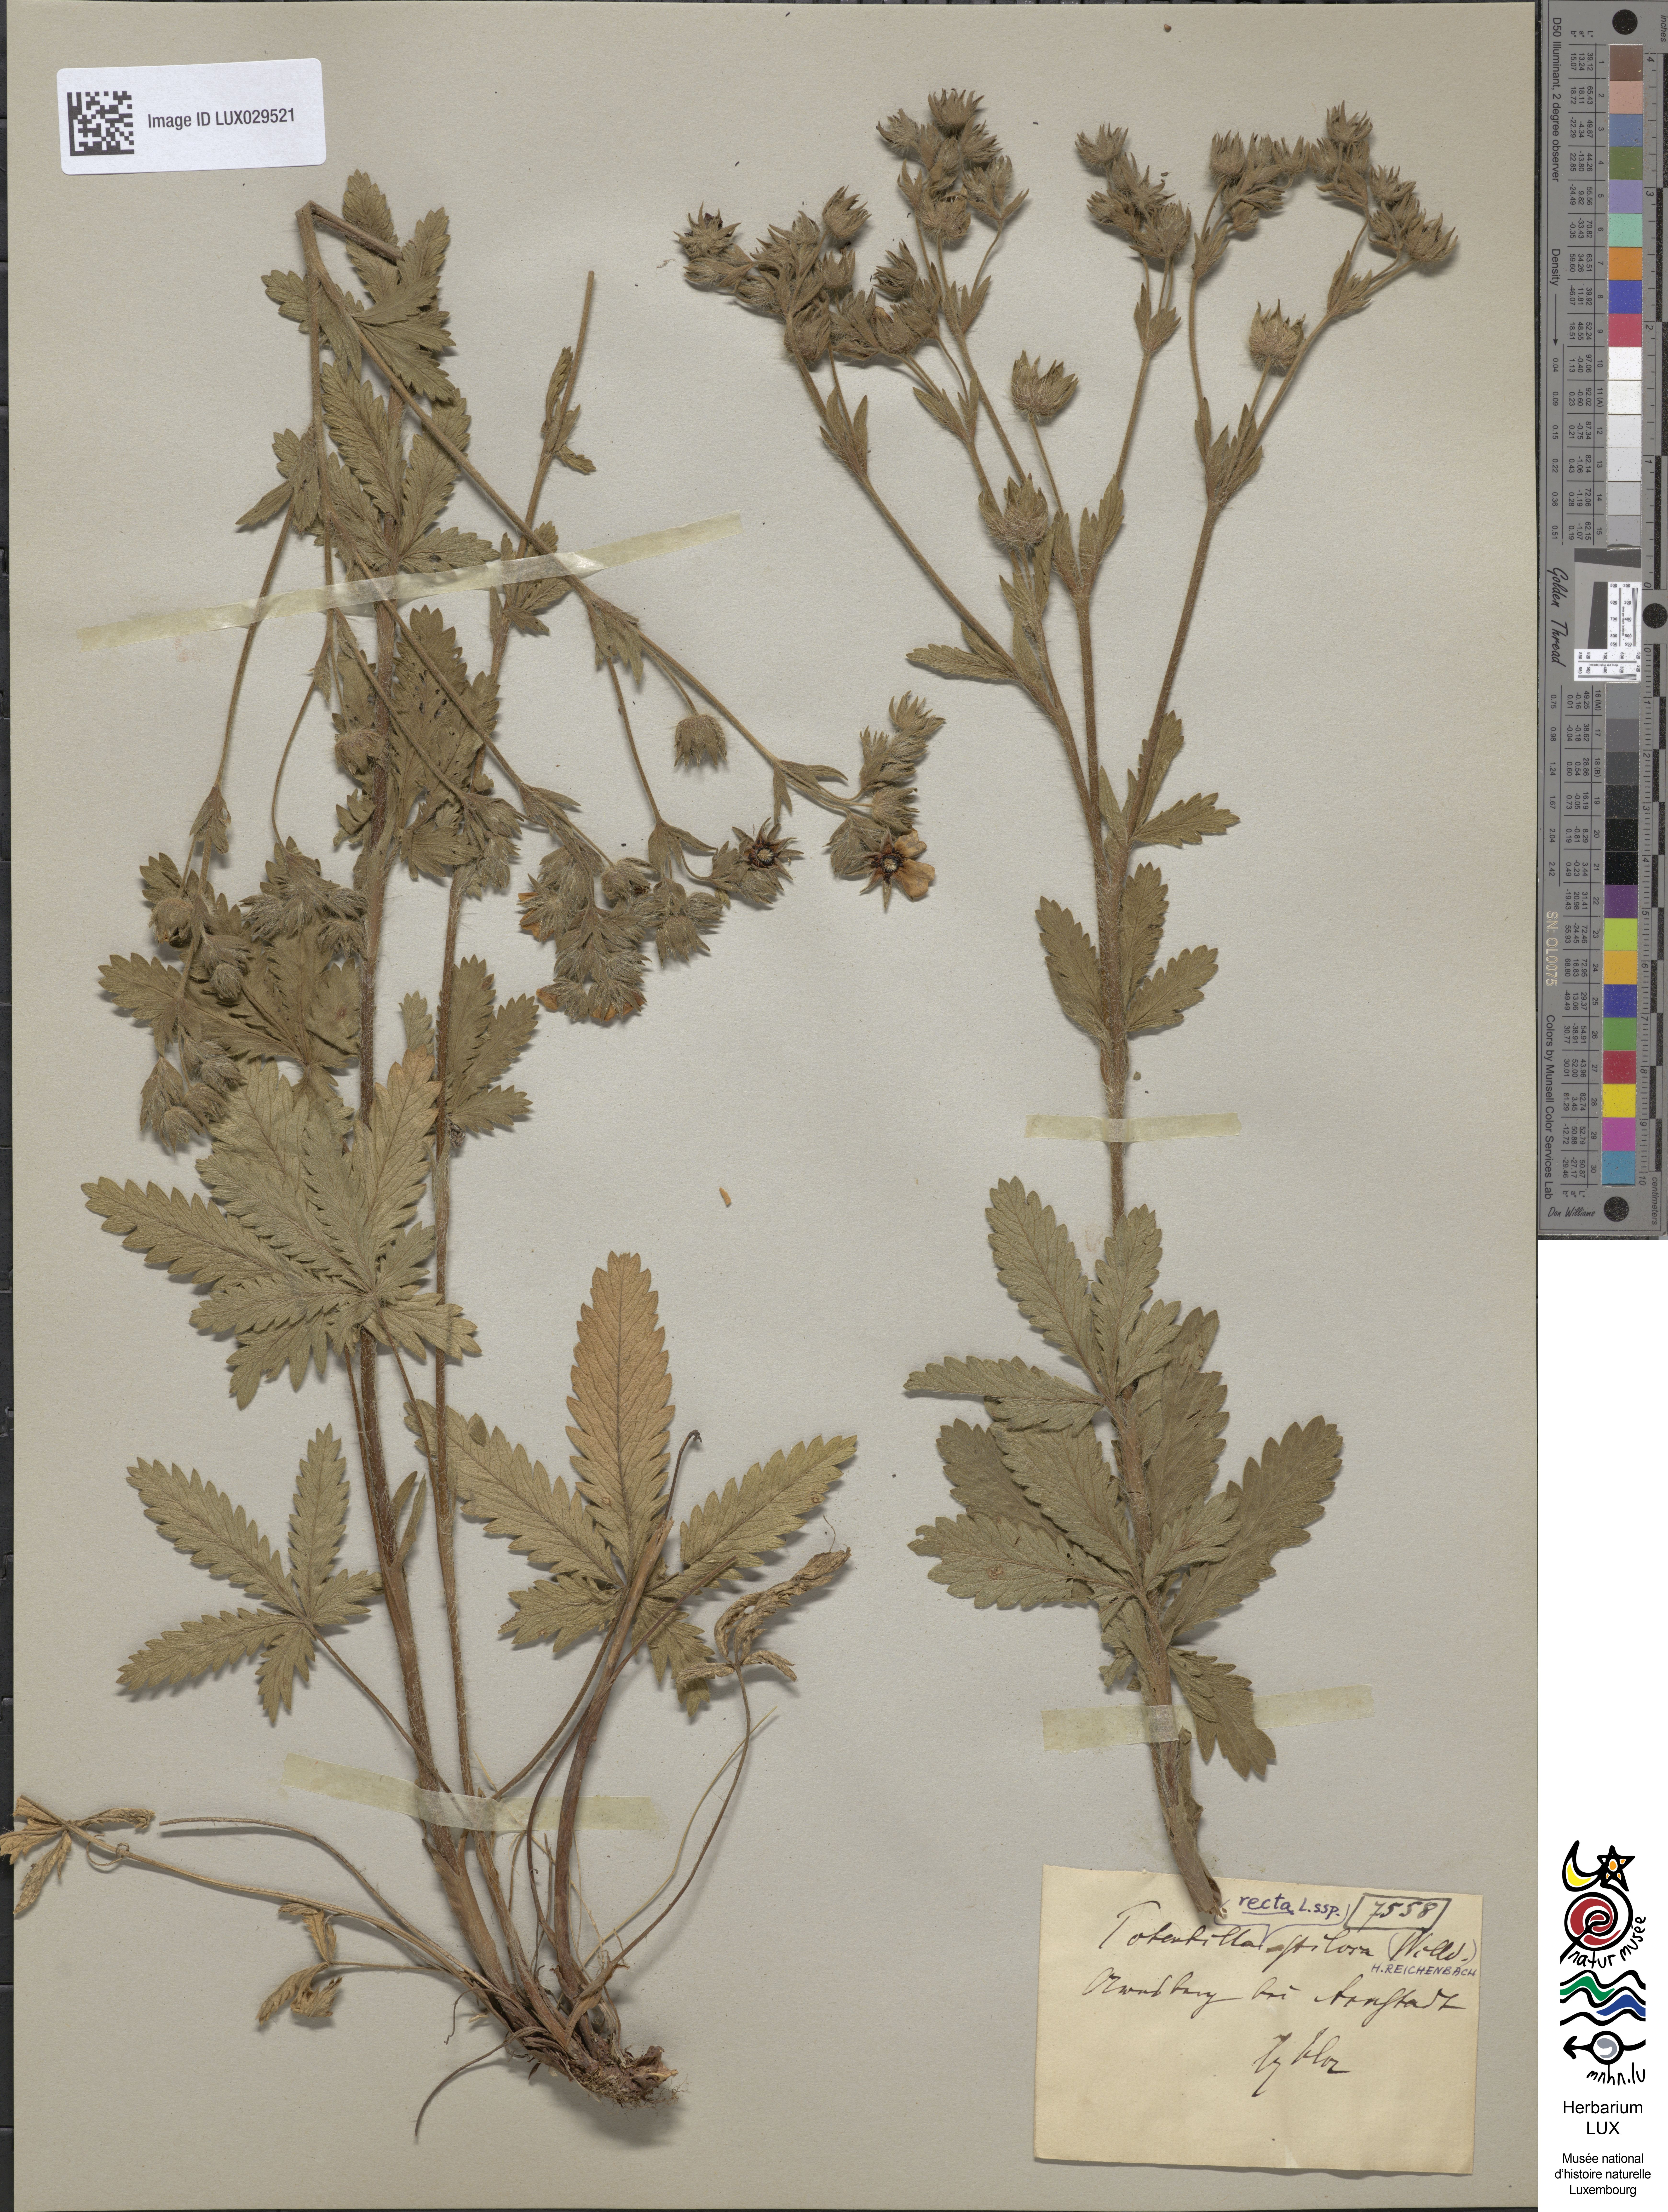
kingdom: Plantae
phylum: Tracheophyta
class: Magnoliopsida
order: Rosales
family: Rosaceae
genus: Potentilla
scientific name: Potentilla recta
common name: Sulphur cinquefoil
